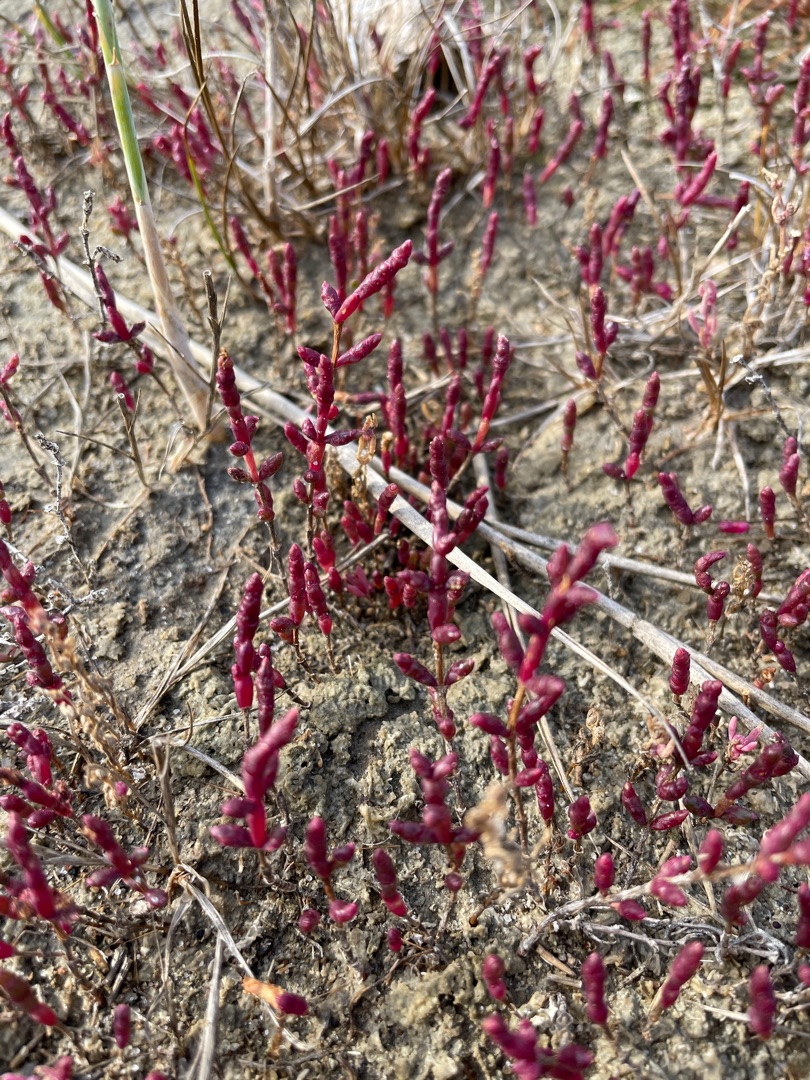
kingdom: Plantae
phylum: Tracheophyta
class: Magnoliopsida
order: Caryophyllales
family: Amaranthaceae
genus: Salicornia
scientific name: Salicornia europaea
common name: Almindelig salturt
